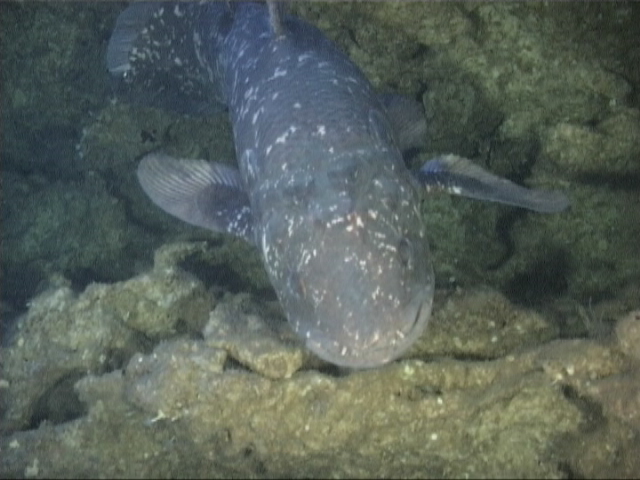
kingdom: Animalia
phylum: Chordata
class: Coelacanthi
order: Coelacanthiformes
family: Latimeriidae
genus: Latimeria
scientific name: Latimeria chalumnae
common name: Coelacanth
